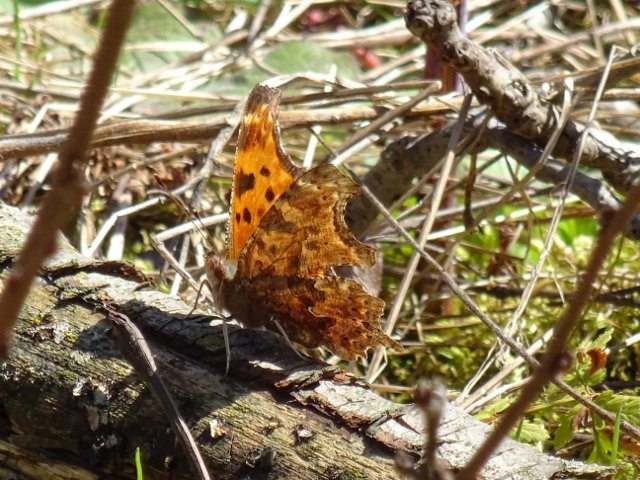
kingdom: Animalia
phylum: Arthropoda
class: Insecta
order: Lepidoptera
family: Nymphalidae
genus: Polygonia
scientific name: Polygonia comma
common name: Eastern Comma
